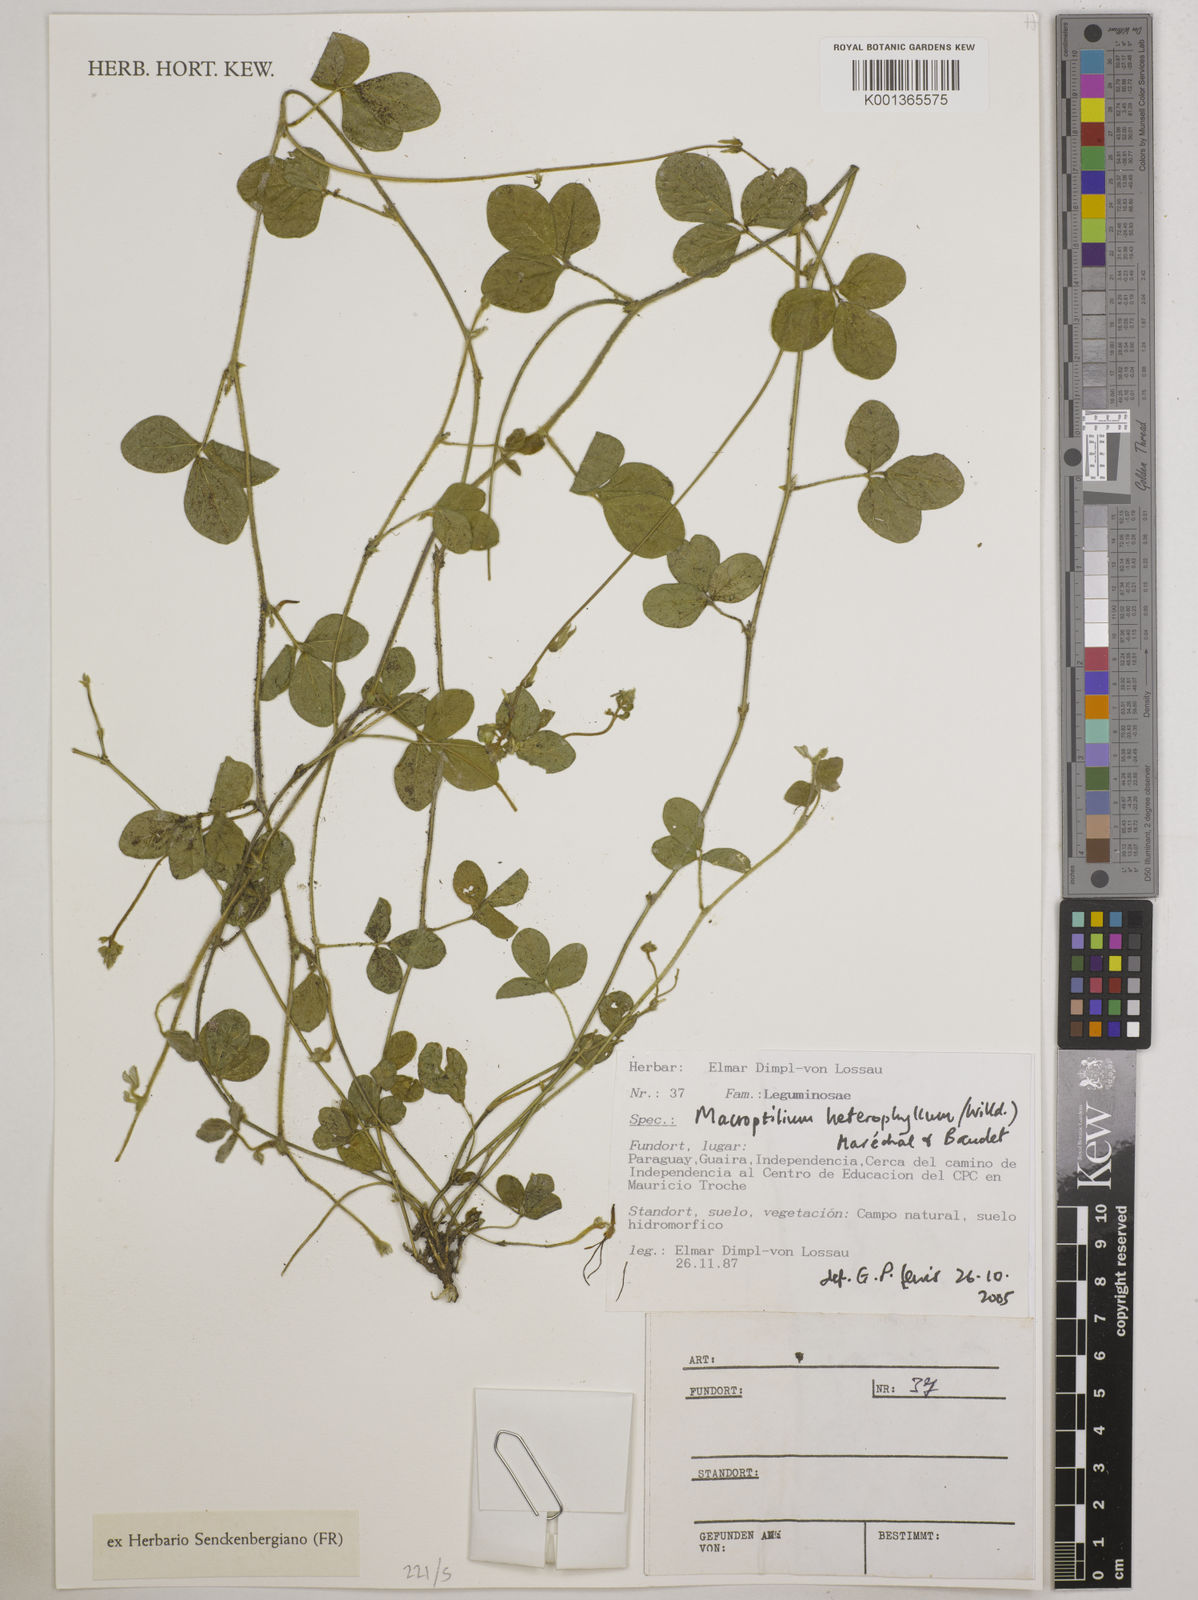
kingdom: Plantae
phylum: Tracheophyta
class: Magnoliopsida
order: Fabales
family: Fabaceae
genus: Macroptilium
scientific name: Macroptilium gibbosifolium
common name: Variableleaf bushbean
